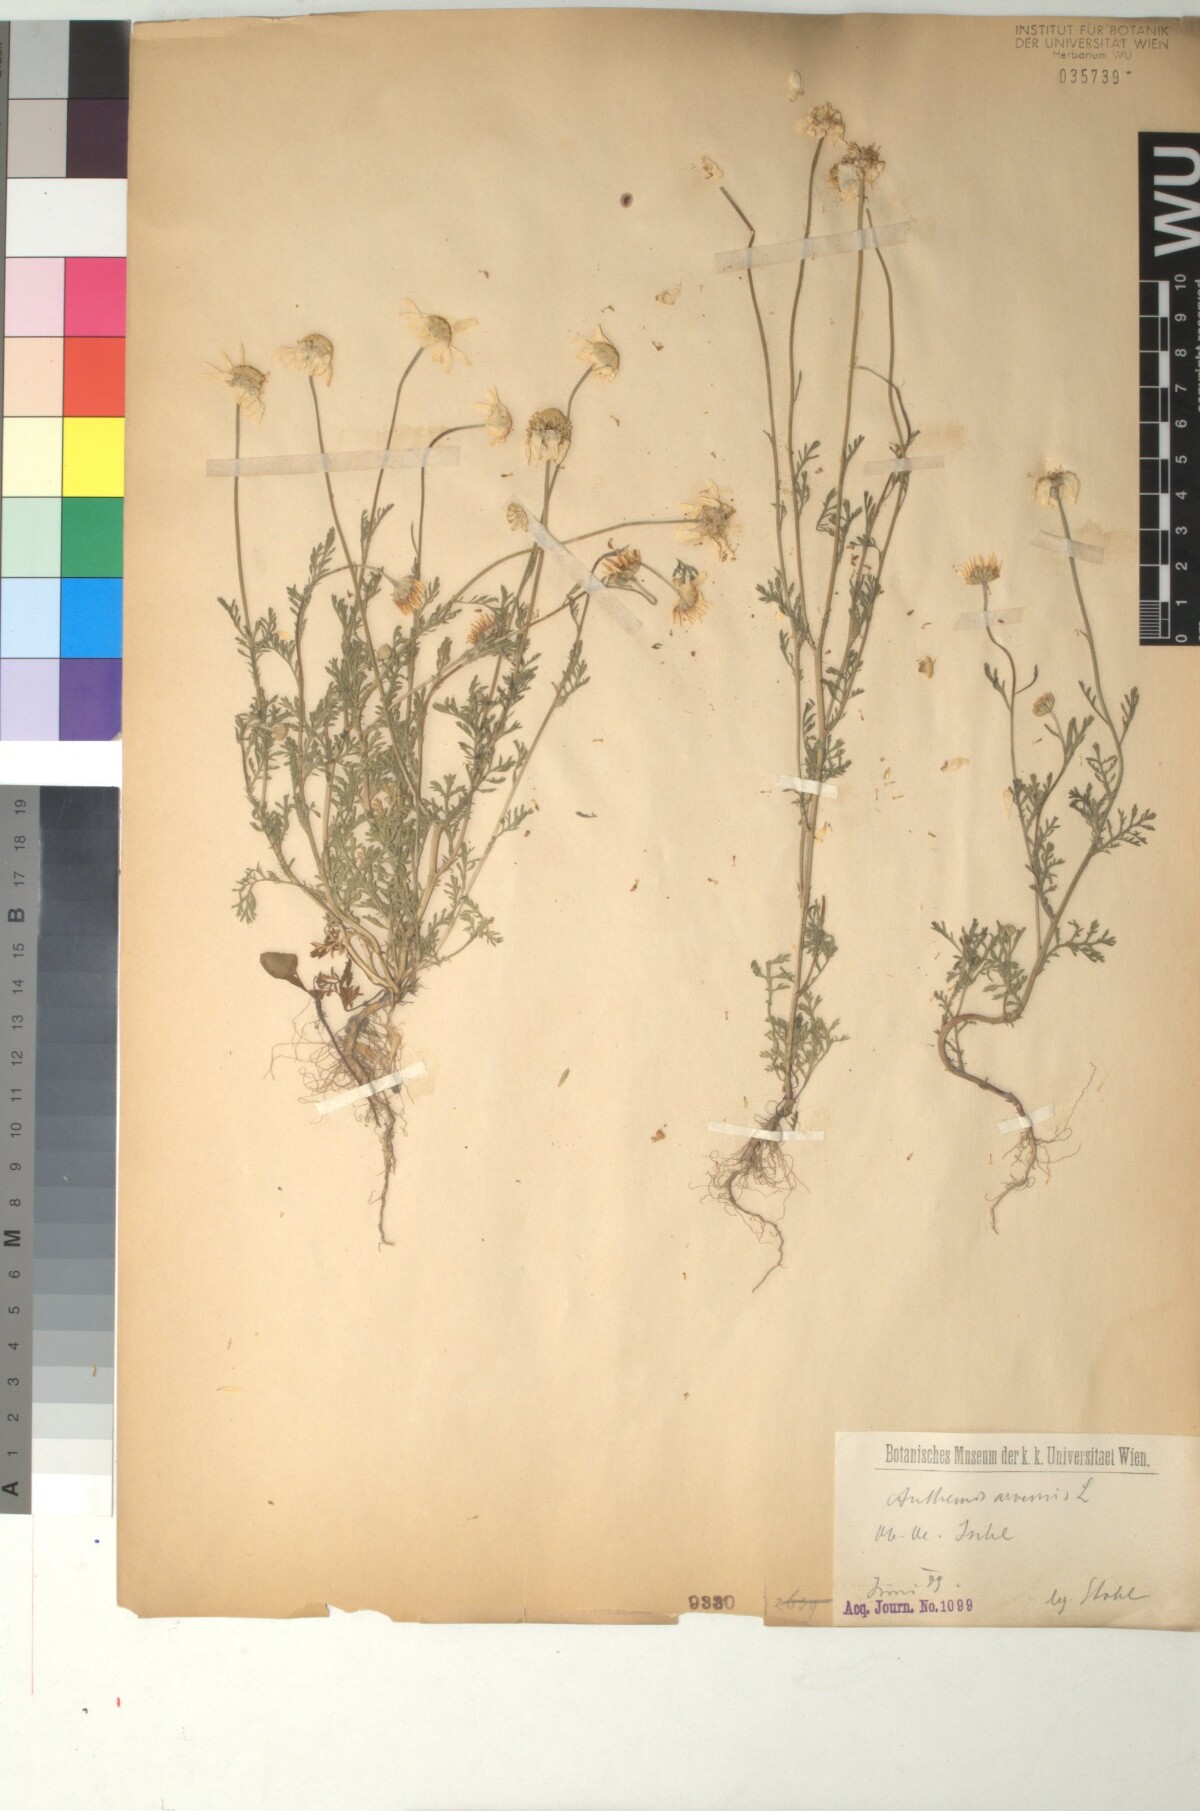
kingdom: Plantae
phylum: Tracheophyta
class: Magnoliopsida
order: Asterales
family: Asteraceae
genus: Anthemis
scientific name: Anthemis arvensis
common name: Corn chamomile
